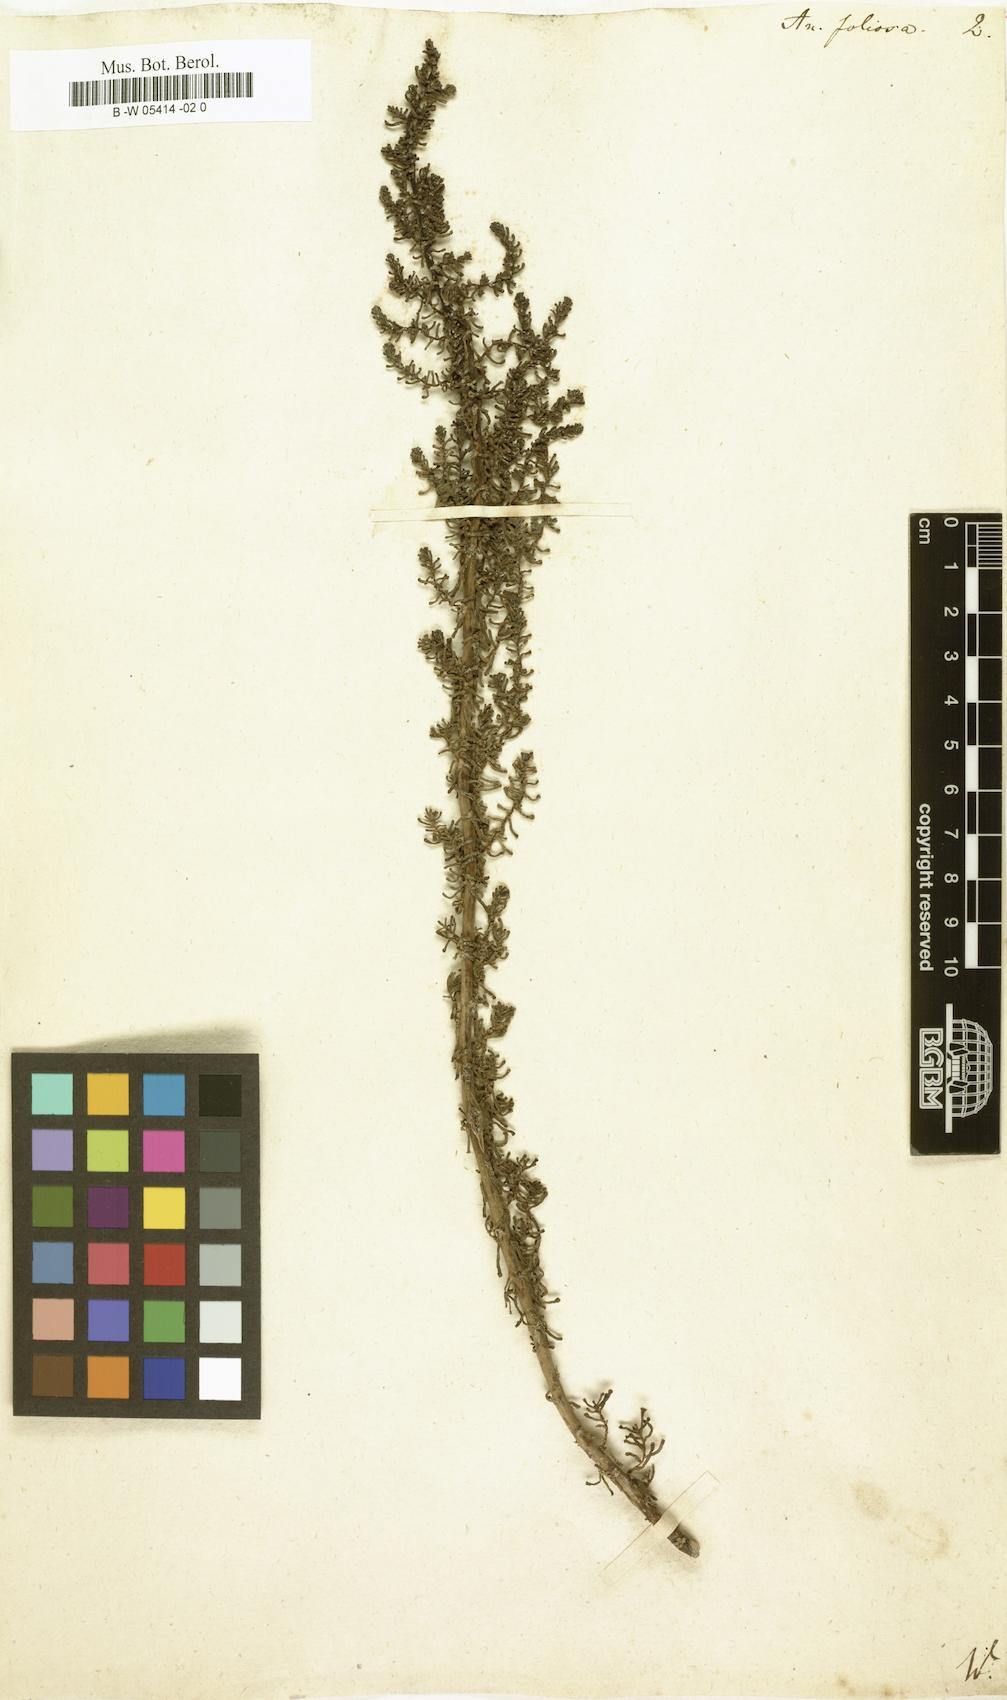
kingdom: Plantae
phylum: Tracheophyta
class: Magnoliopsida
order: Caryophyllales
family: Amaranthaceae
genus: Soda
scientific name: Soda foliosa
